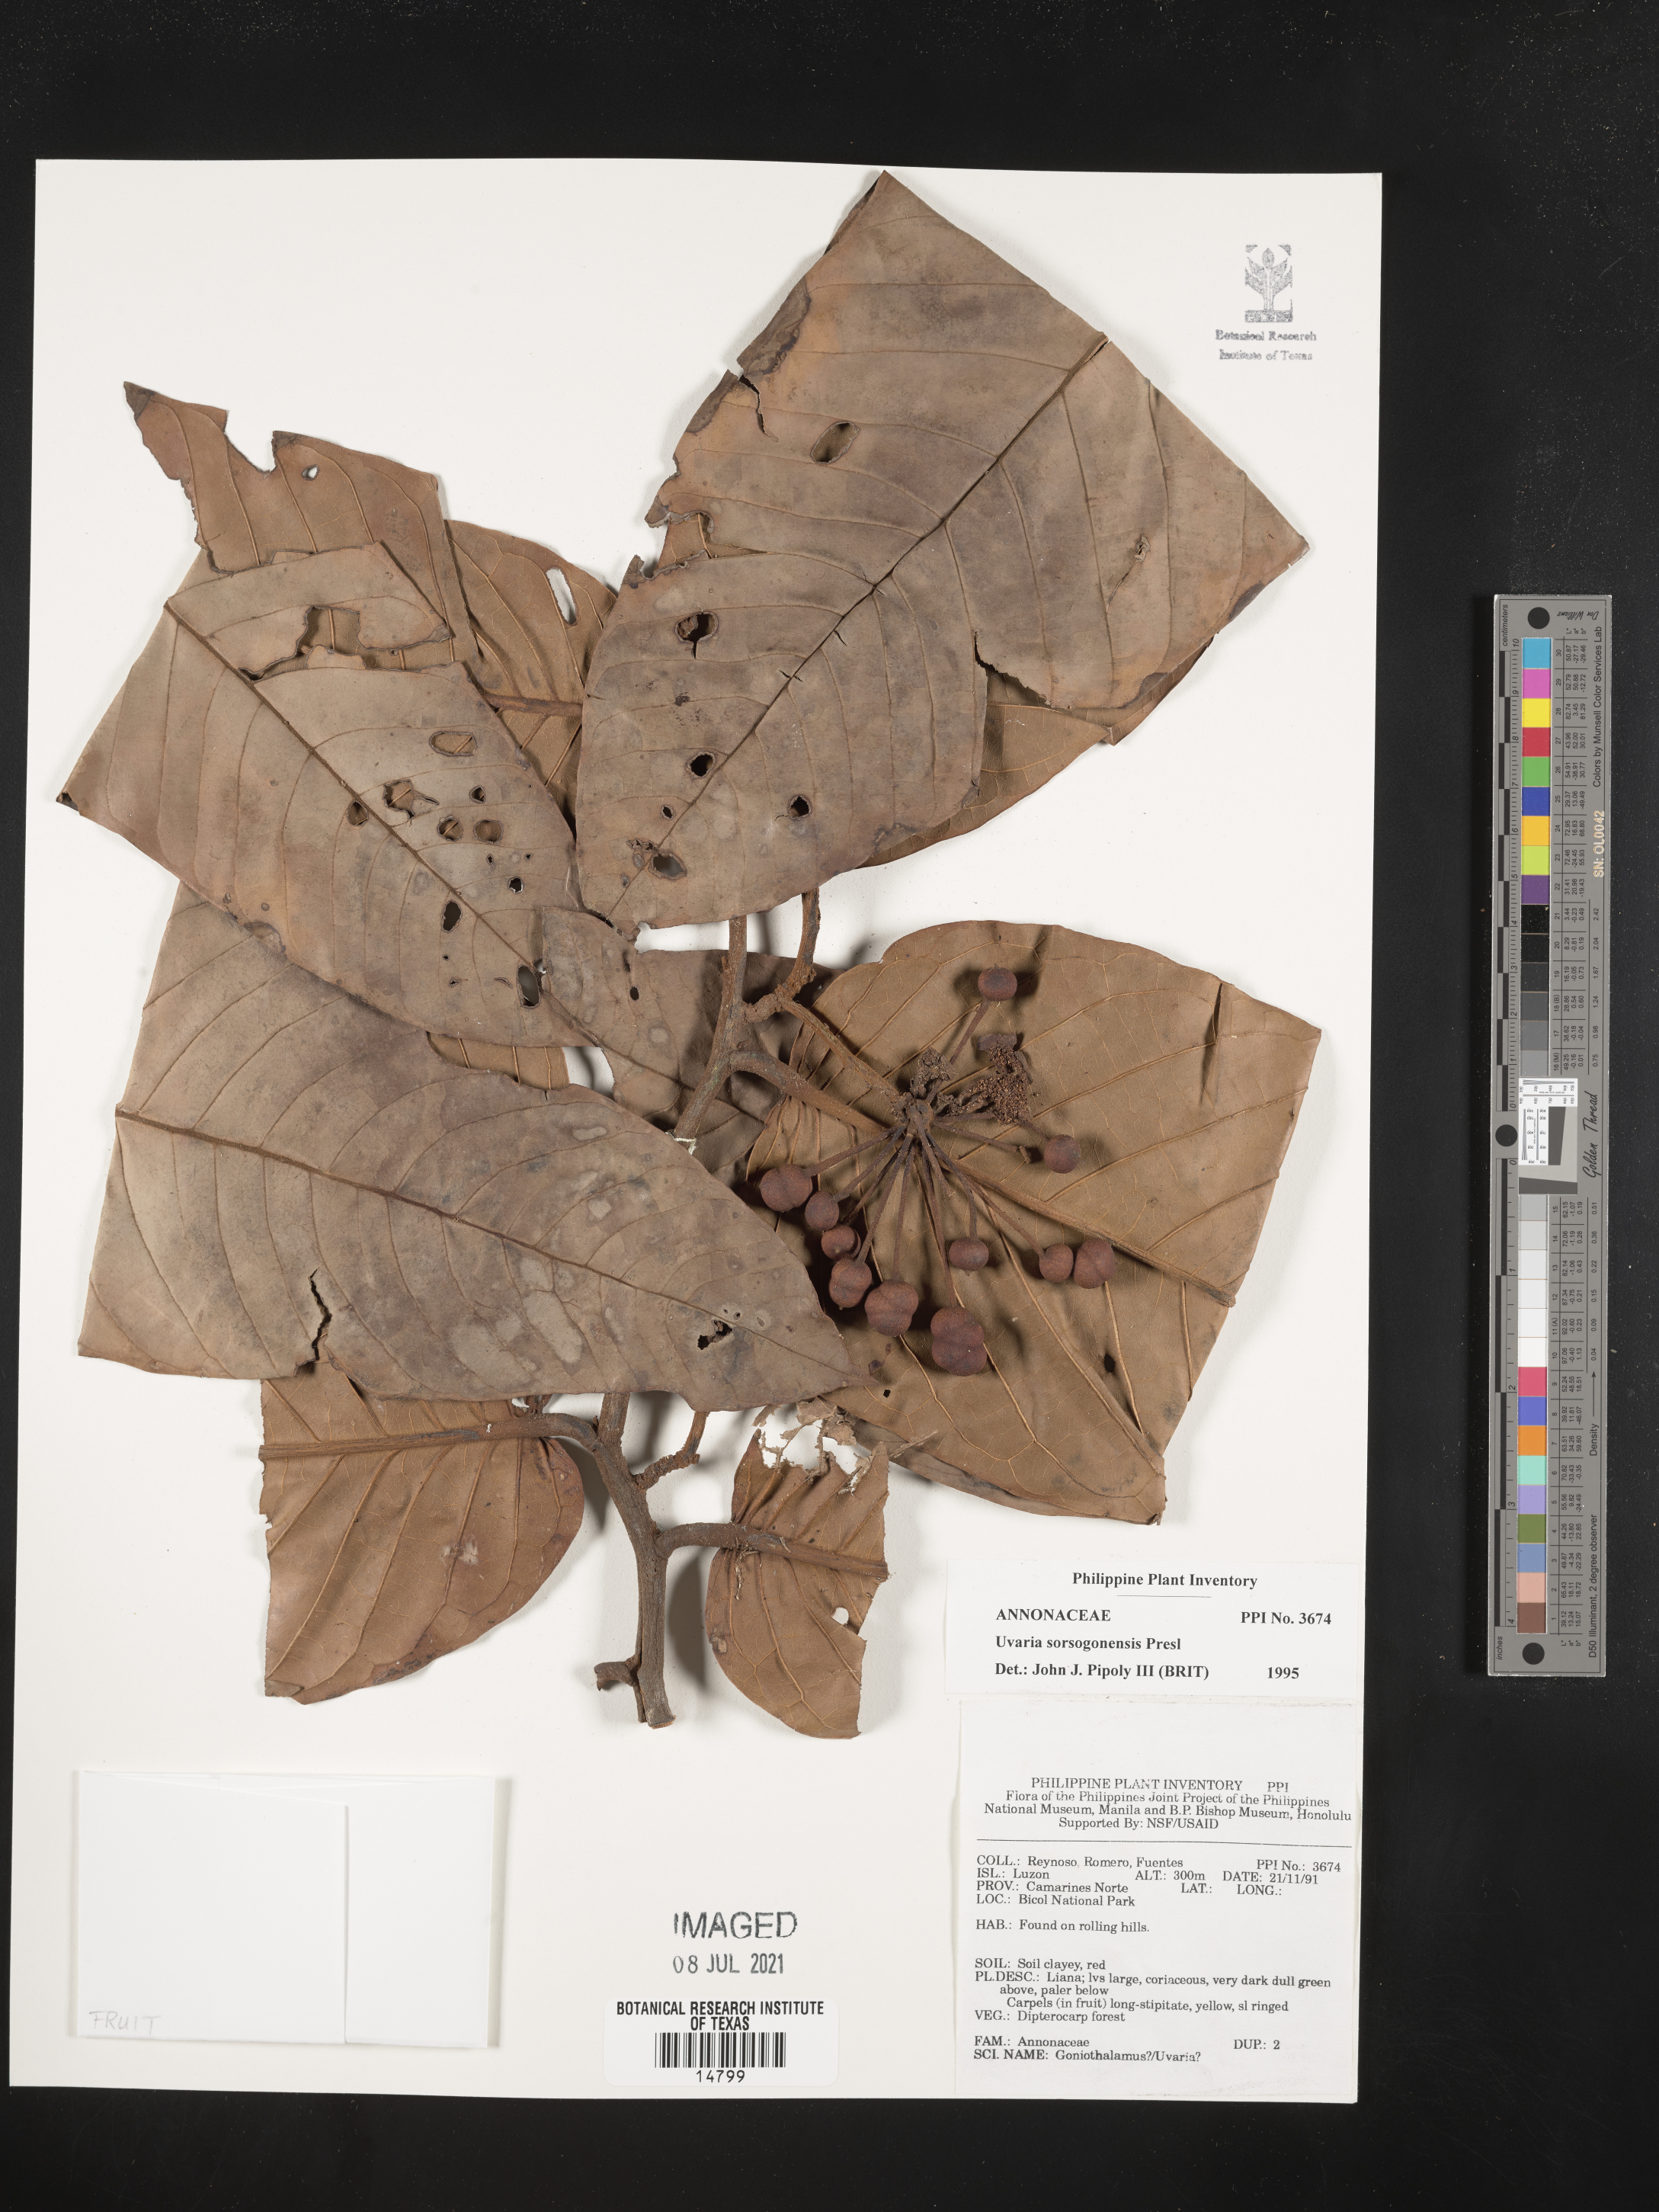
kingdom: Plantae
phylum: Tracheophyta
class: Magnoliopsida
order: Magnoliales
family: Annonaceae
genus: Uvaria
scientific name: Uvaria littoralis
